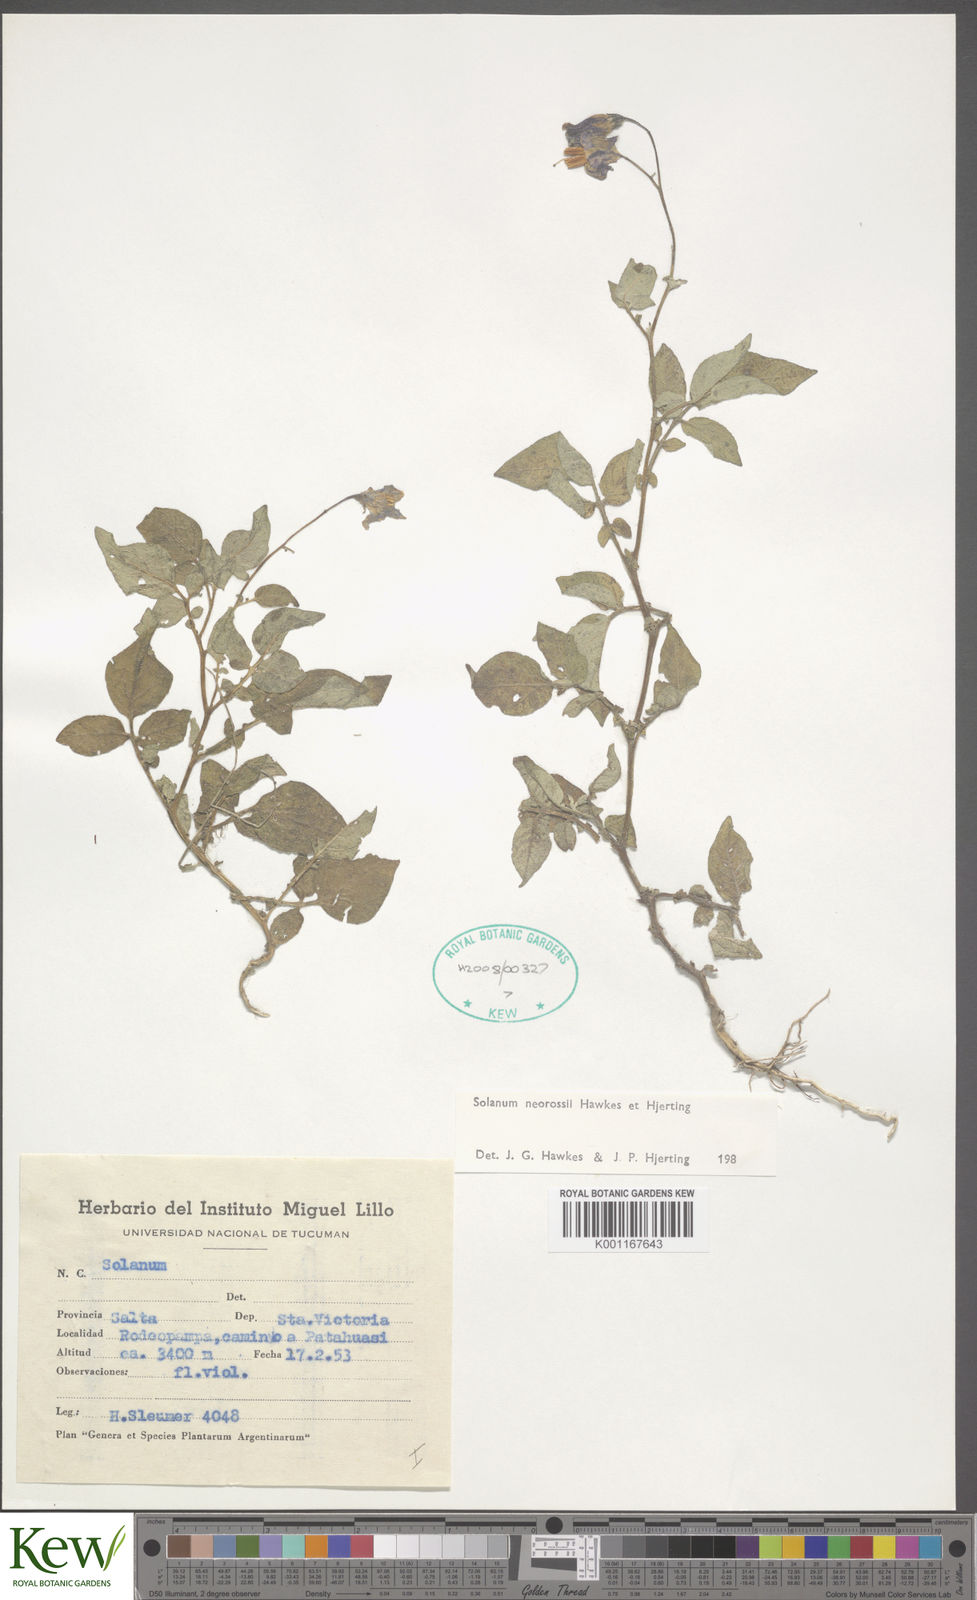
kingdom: Plantae
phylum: Tracheophyta
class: Magnoliopsida
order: Solanales
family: Solanaceae
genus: Solanum
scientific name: Solanum neorossii
